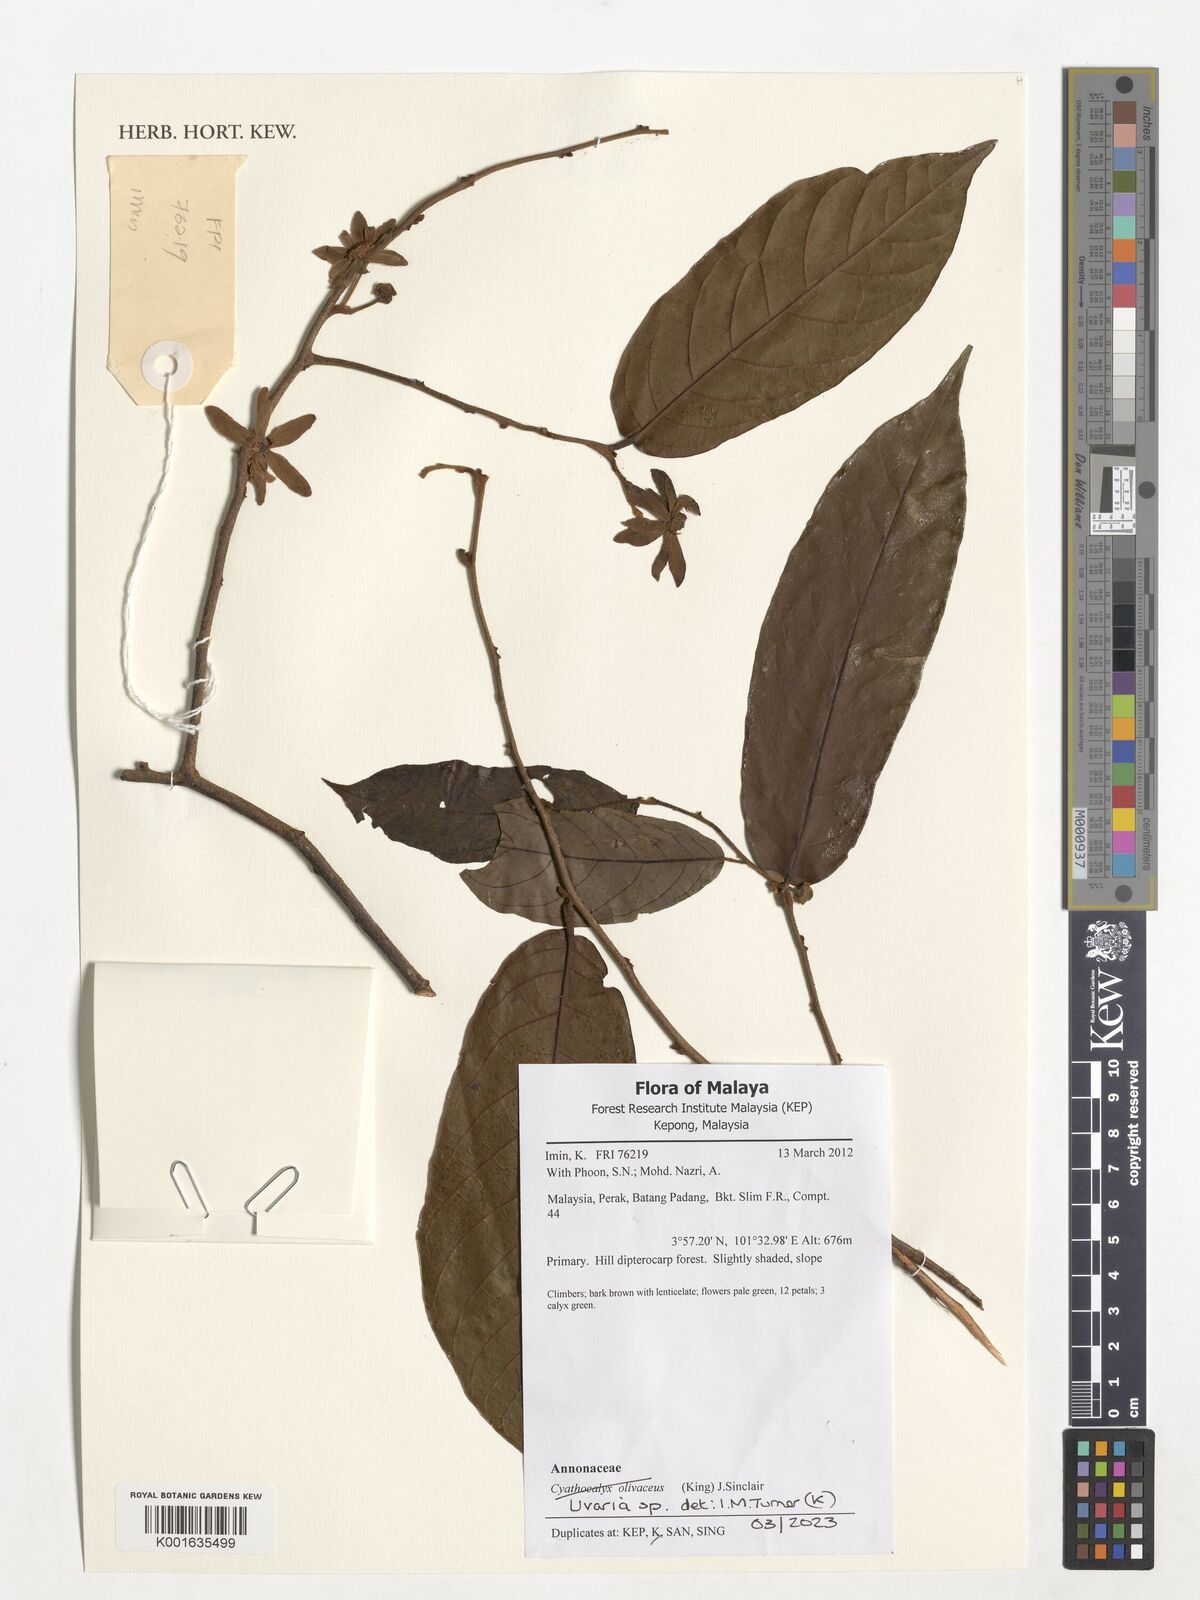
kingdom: Plantae
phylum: Tracheophyta
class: Magnoliopsida
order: Magnoliales
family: Annonaceae
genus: Uvaria
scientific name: Uvaria
